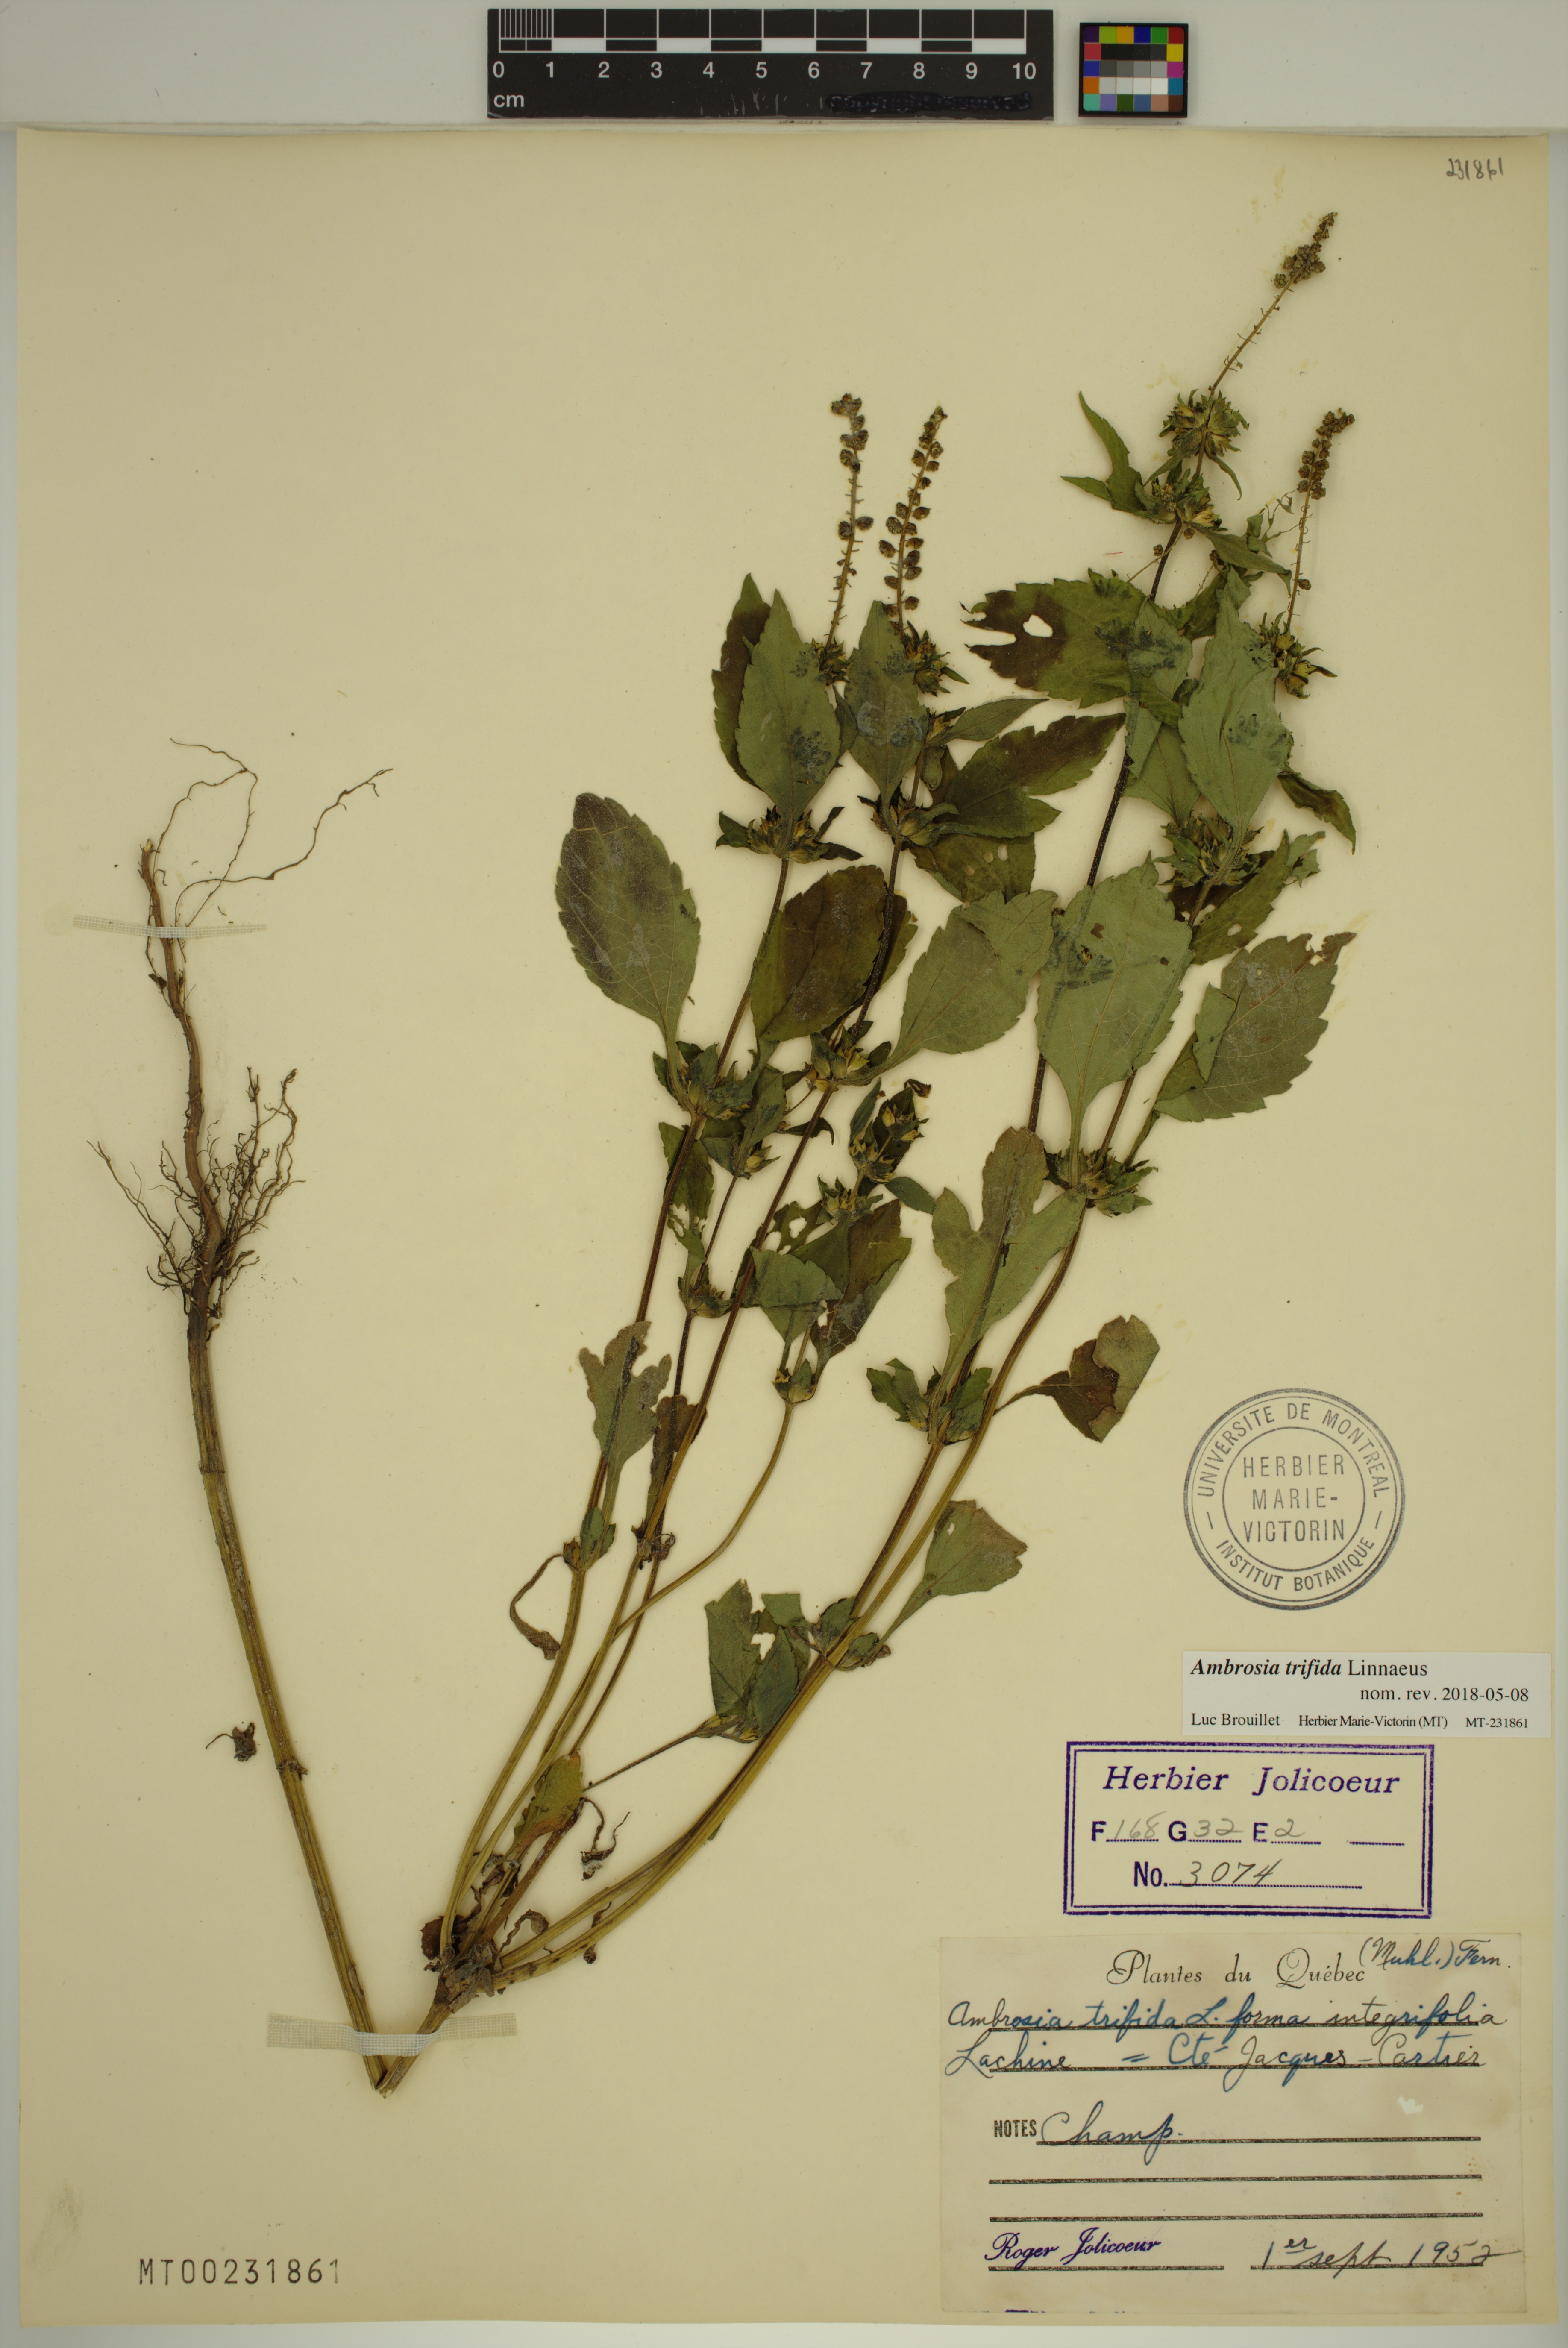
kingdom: Plantae
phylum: Tracheophyta
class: Magnoliopsida
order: Asterales
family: Asteraceae
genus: Ambrosia
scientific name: Ambrosia trifida
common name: Giant ragweed
